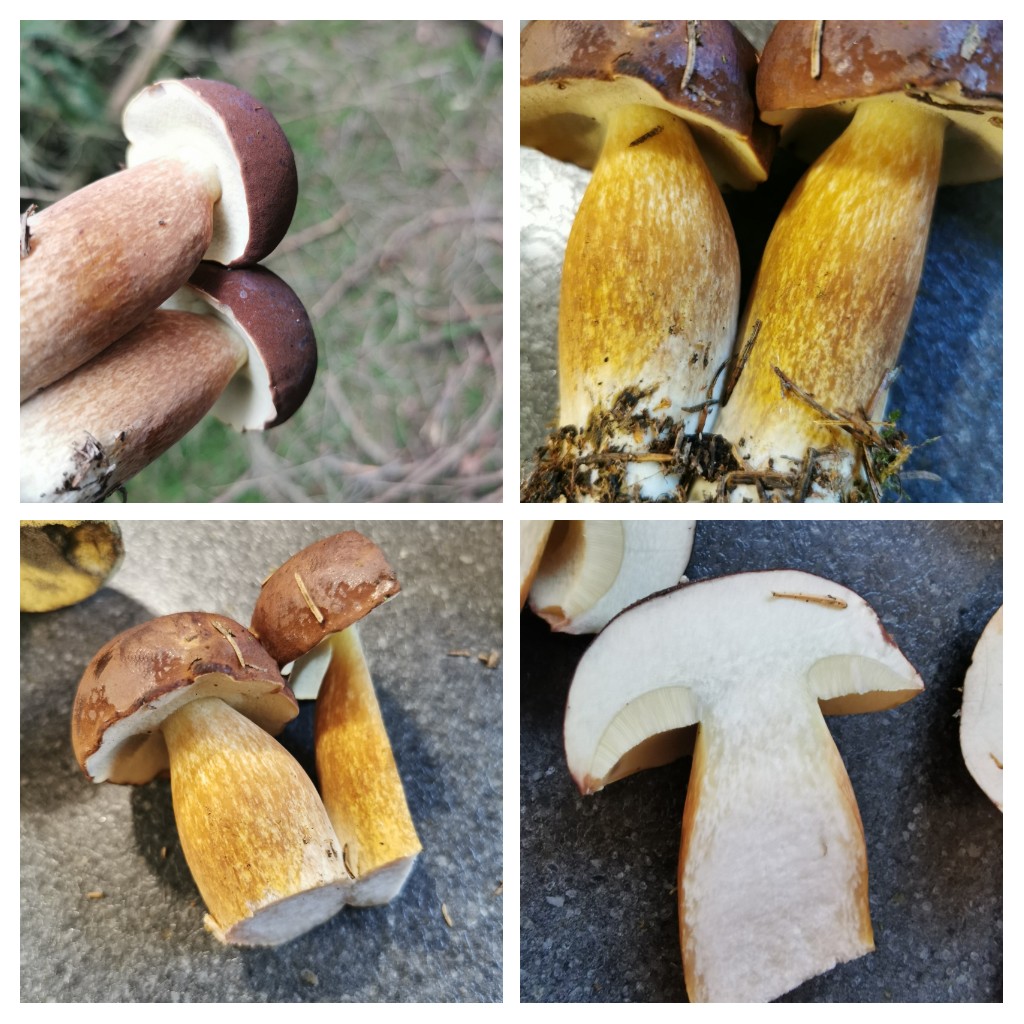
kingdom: Fungi
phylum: Basidiomycota
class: Agaricomycetes
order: Boletales
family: Boletaceae
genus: Imleria
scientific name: Imleria badia
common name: brunstokket rørhat
